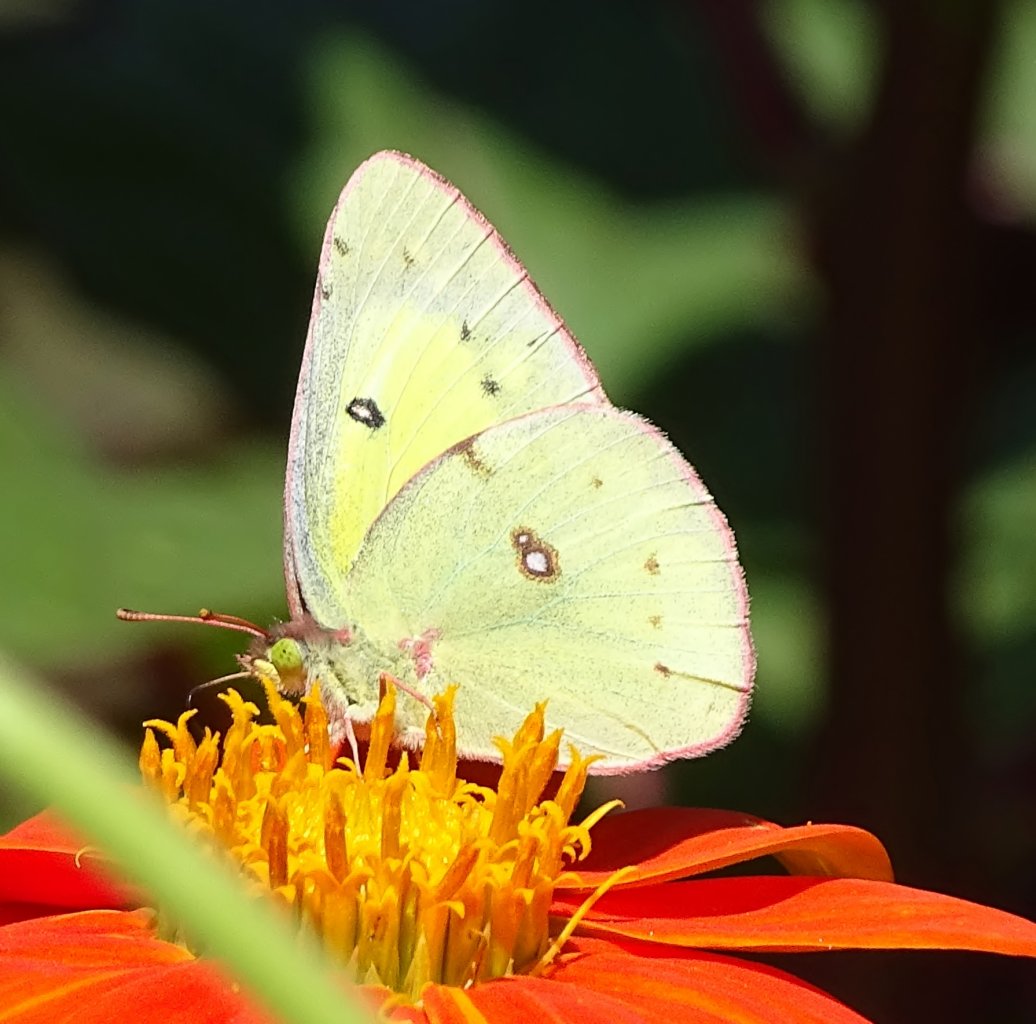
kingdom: Animalia
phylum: Arthropoda
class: Insecta
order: Lepidoptera
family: Pieridae
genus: Colias
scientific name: Colias philodice
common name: Clouded Sulphur
